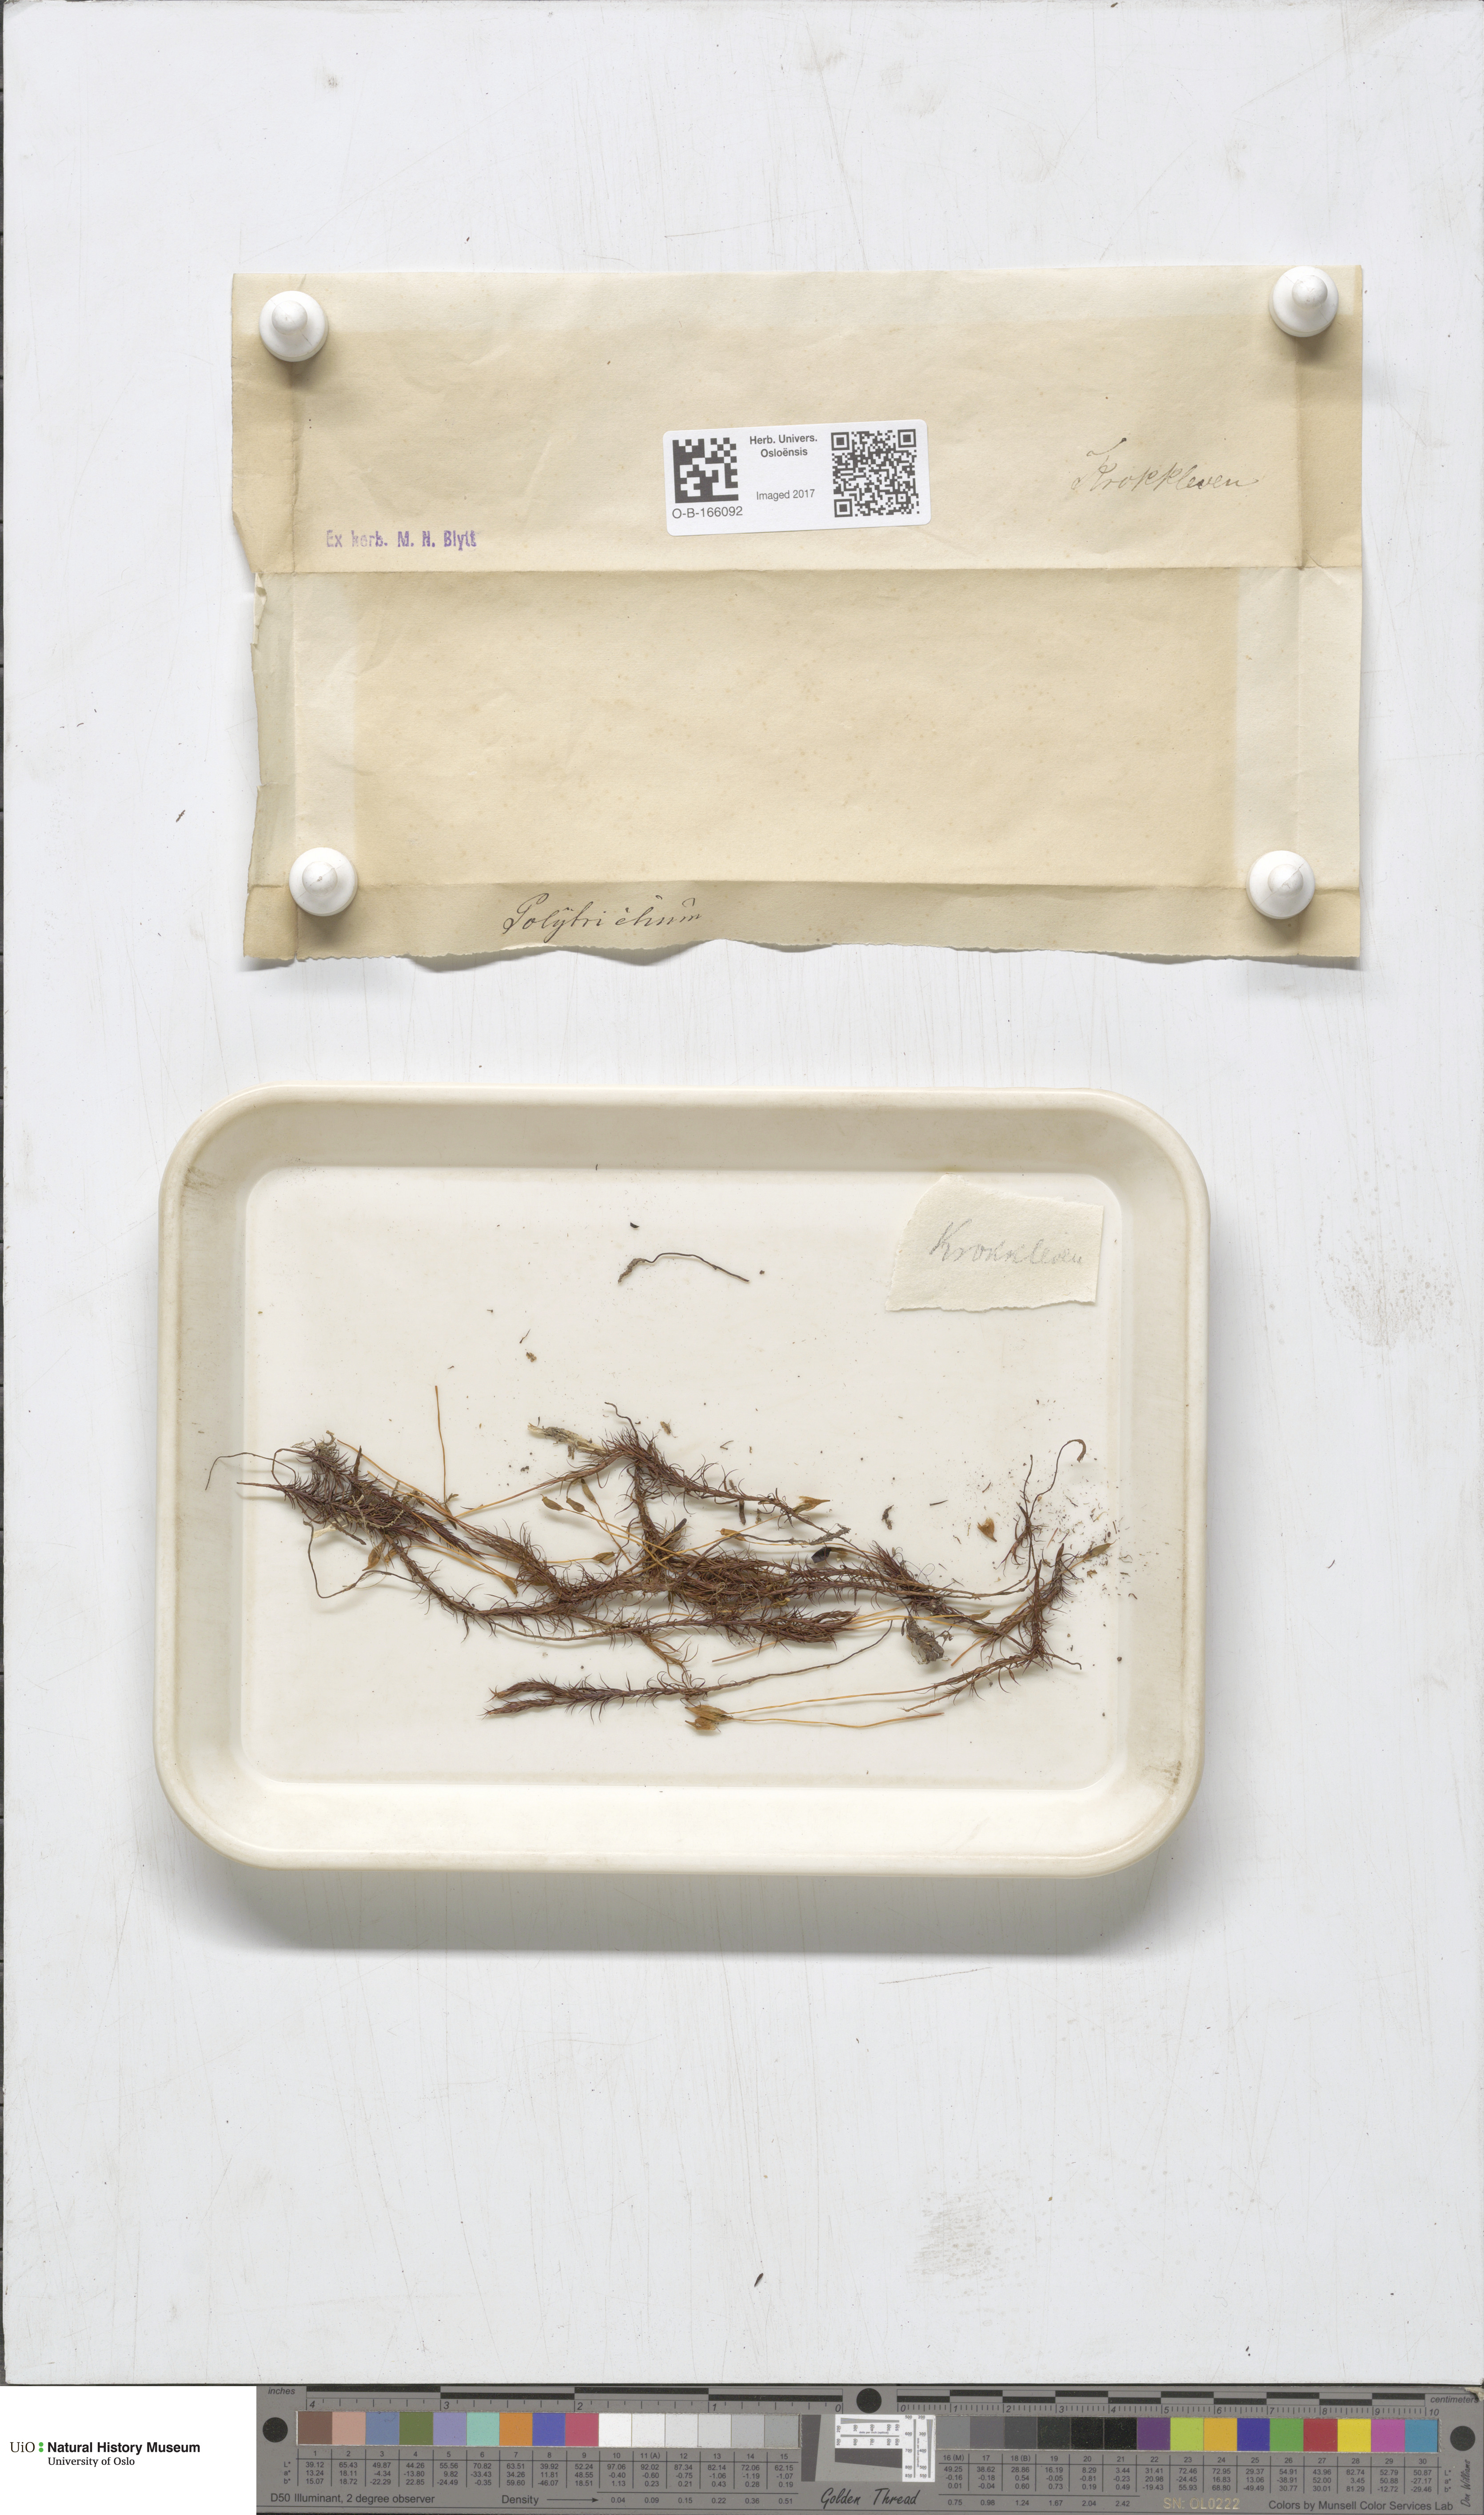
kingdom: Plantae
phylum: Bryophyta
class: Polytrichopsida
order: Polytrichales
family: Polytrichaceae
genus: Polytrichum
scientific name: Polytrichum
